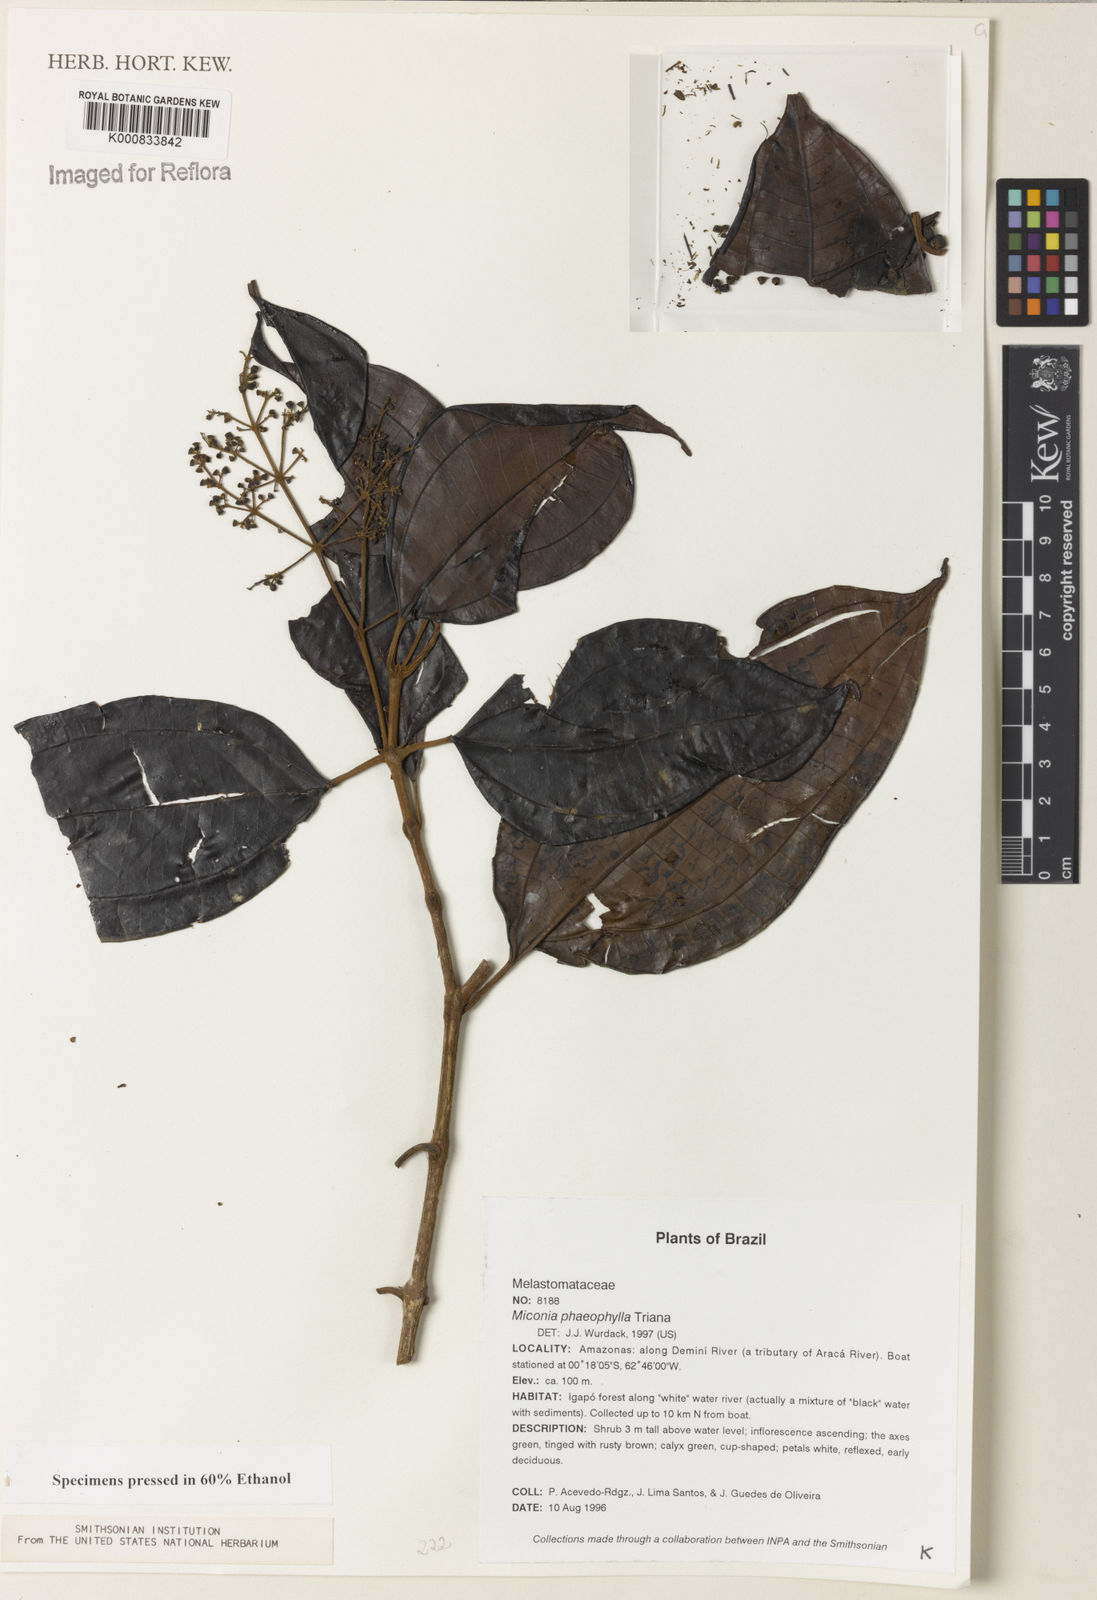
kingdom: Plantae
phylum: Tracheophyta
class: Magnoliopsida
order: Myrtales
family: Melastomataceae
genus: Miconia
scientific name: Miconia phaeophylla
